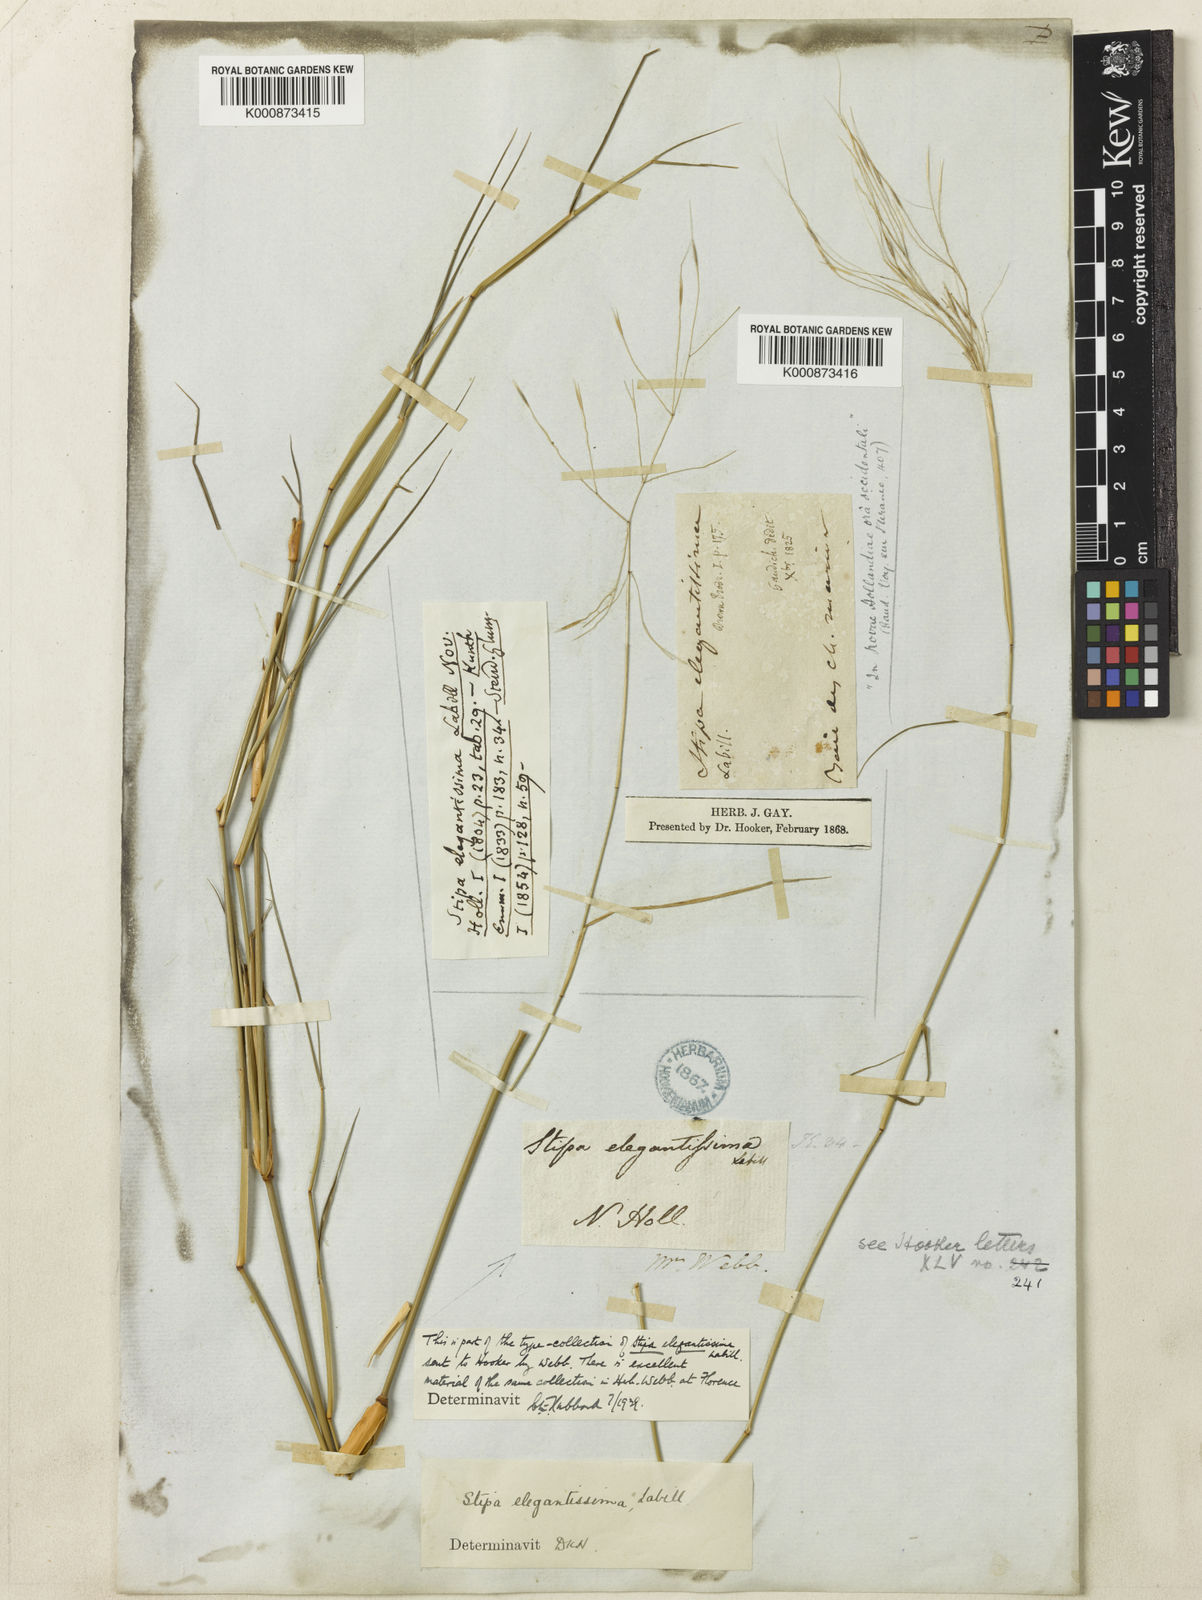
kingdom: Plantae
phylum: Tracheophyta
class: Liliopsida
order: Poales
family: Poaceae
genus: Austrostipa
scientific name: Austrostipa elegantissima
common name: Feather spear grass
